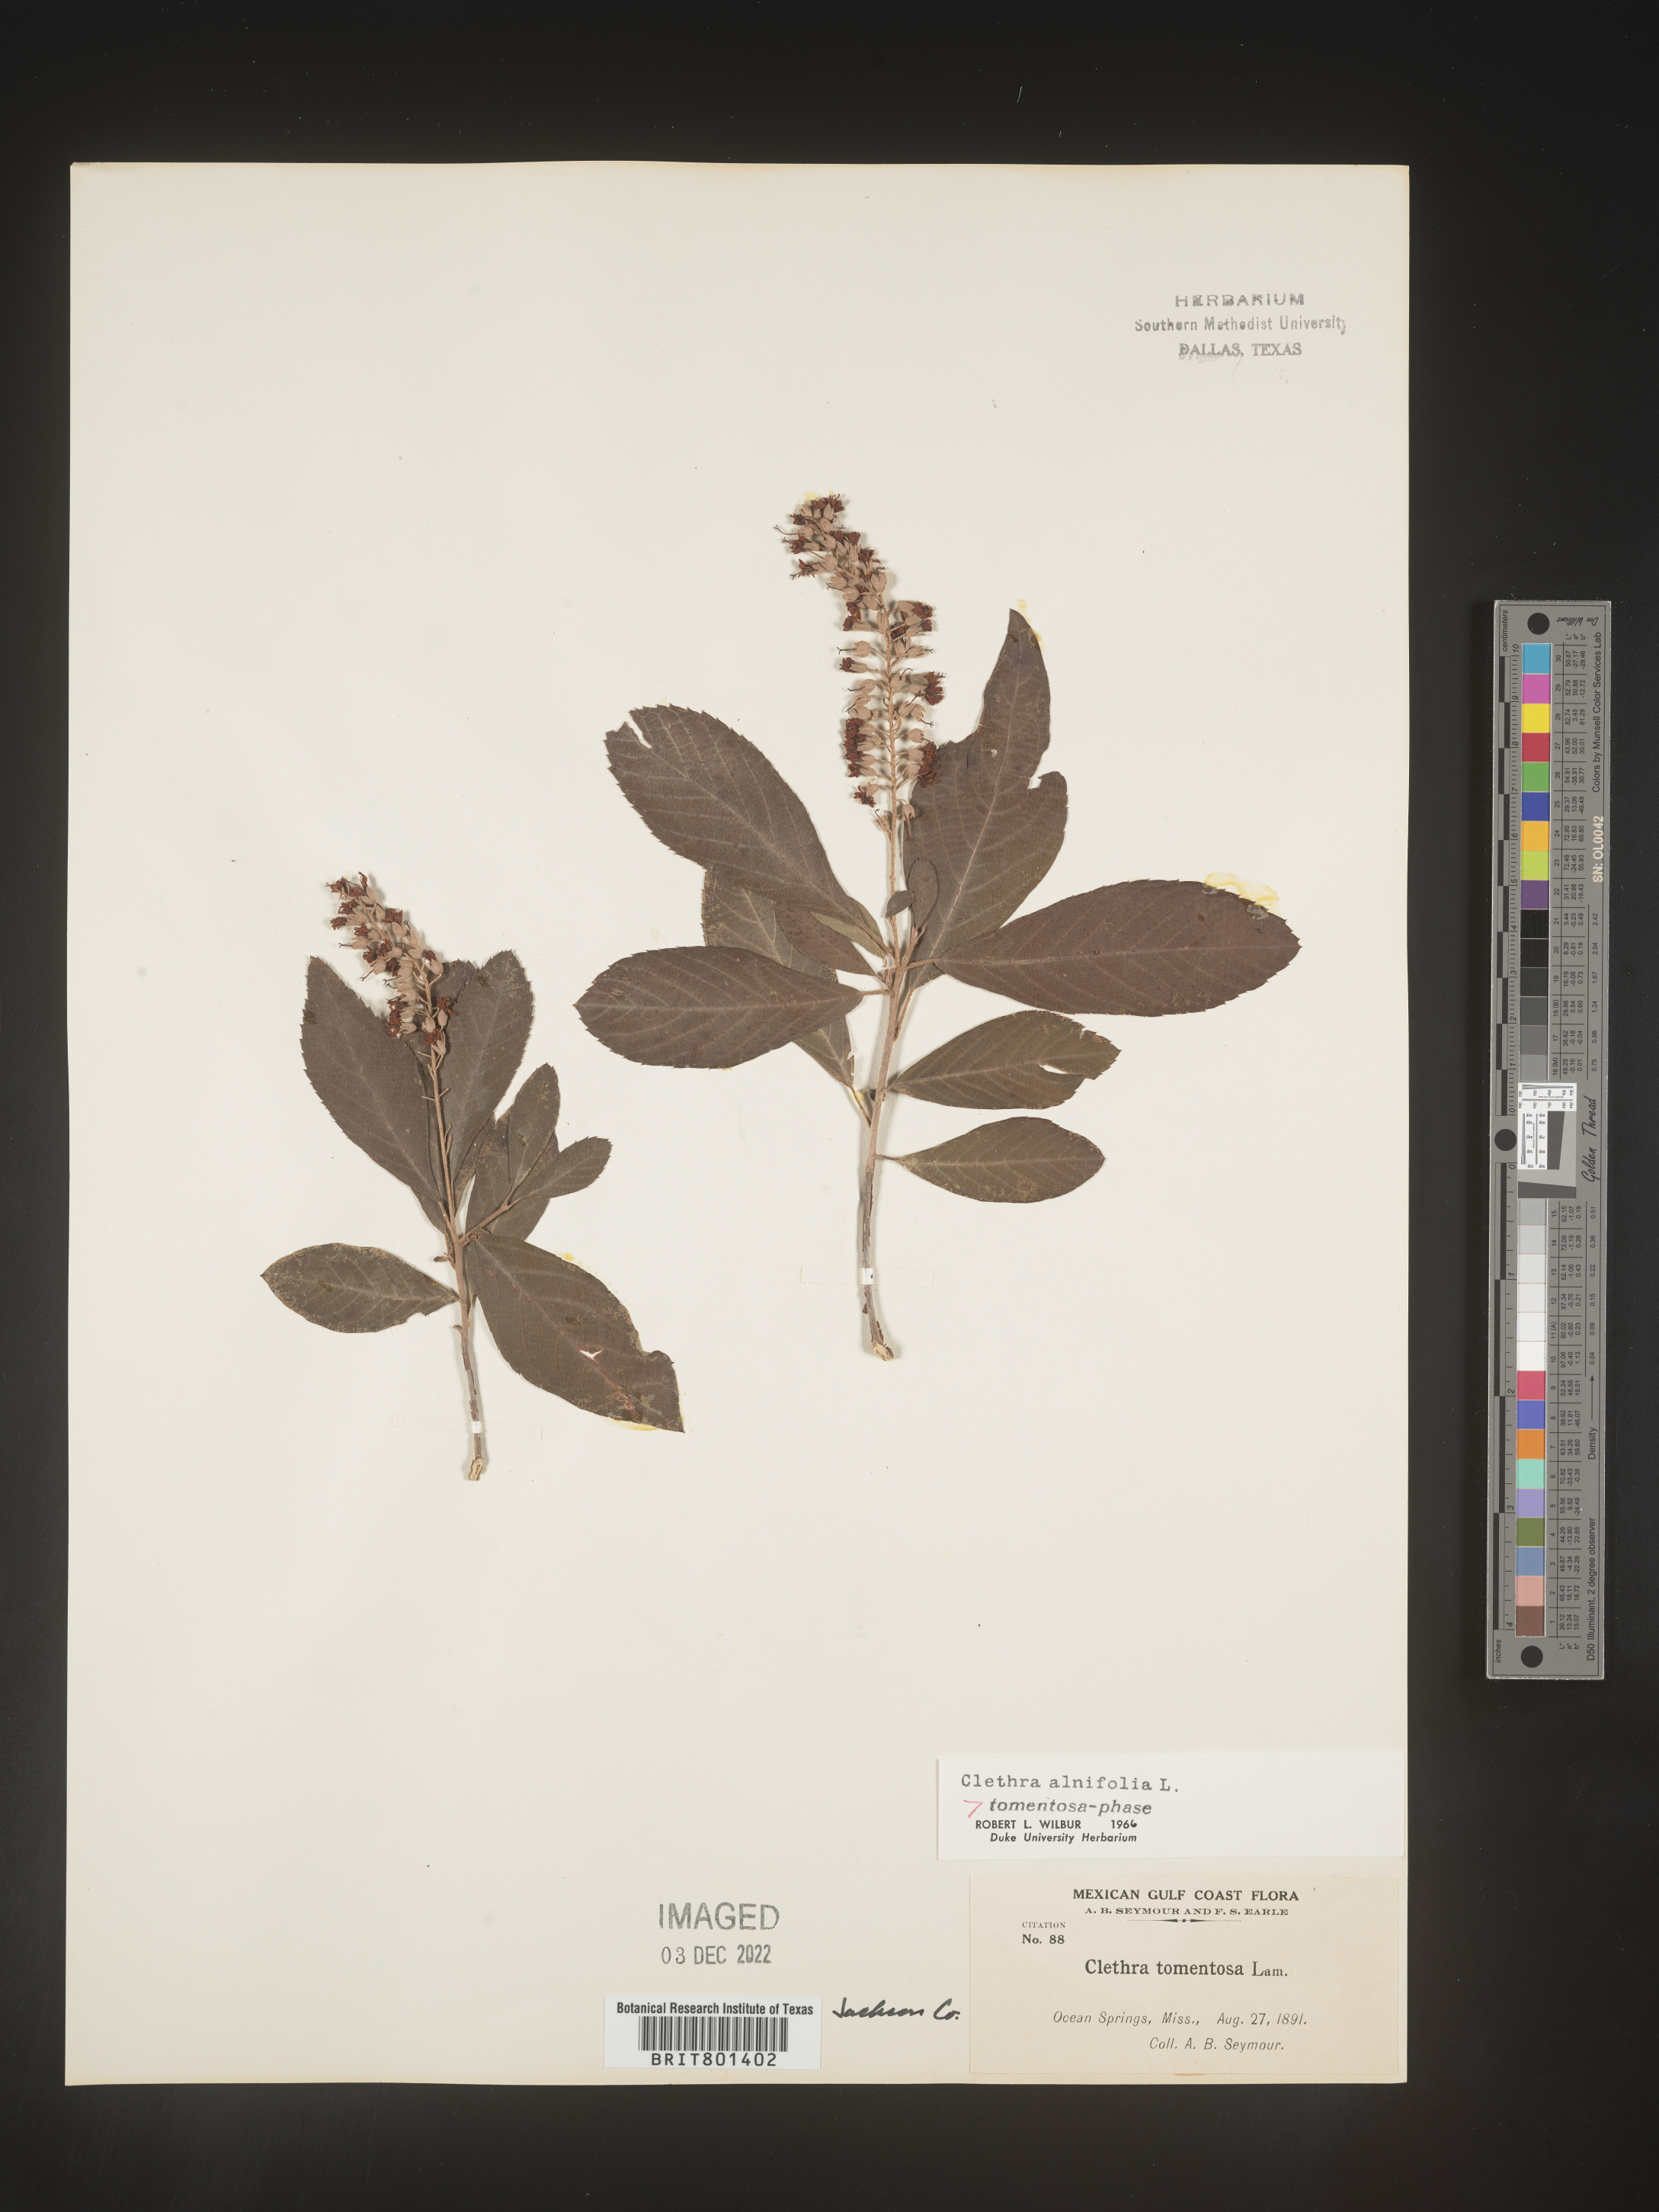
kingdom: Plantae
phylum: Tracheophyta
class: Magnoliopsida
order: Ericales
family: Clethraceae
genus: Clethra
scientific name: Clethra alnifolia
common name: Sweet pepperbush
